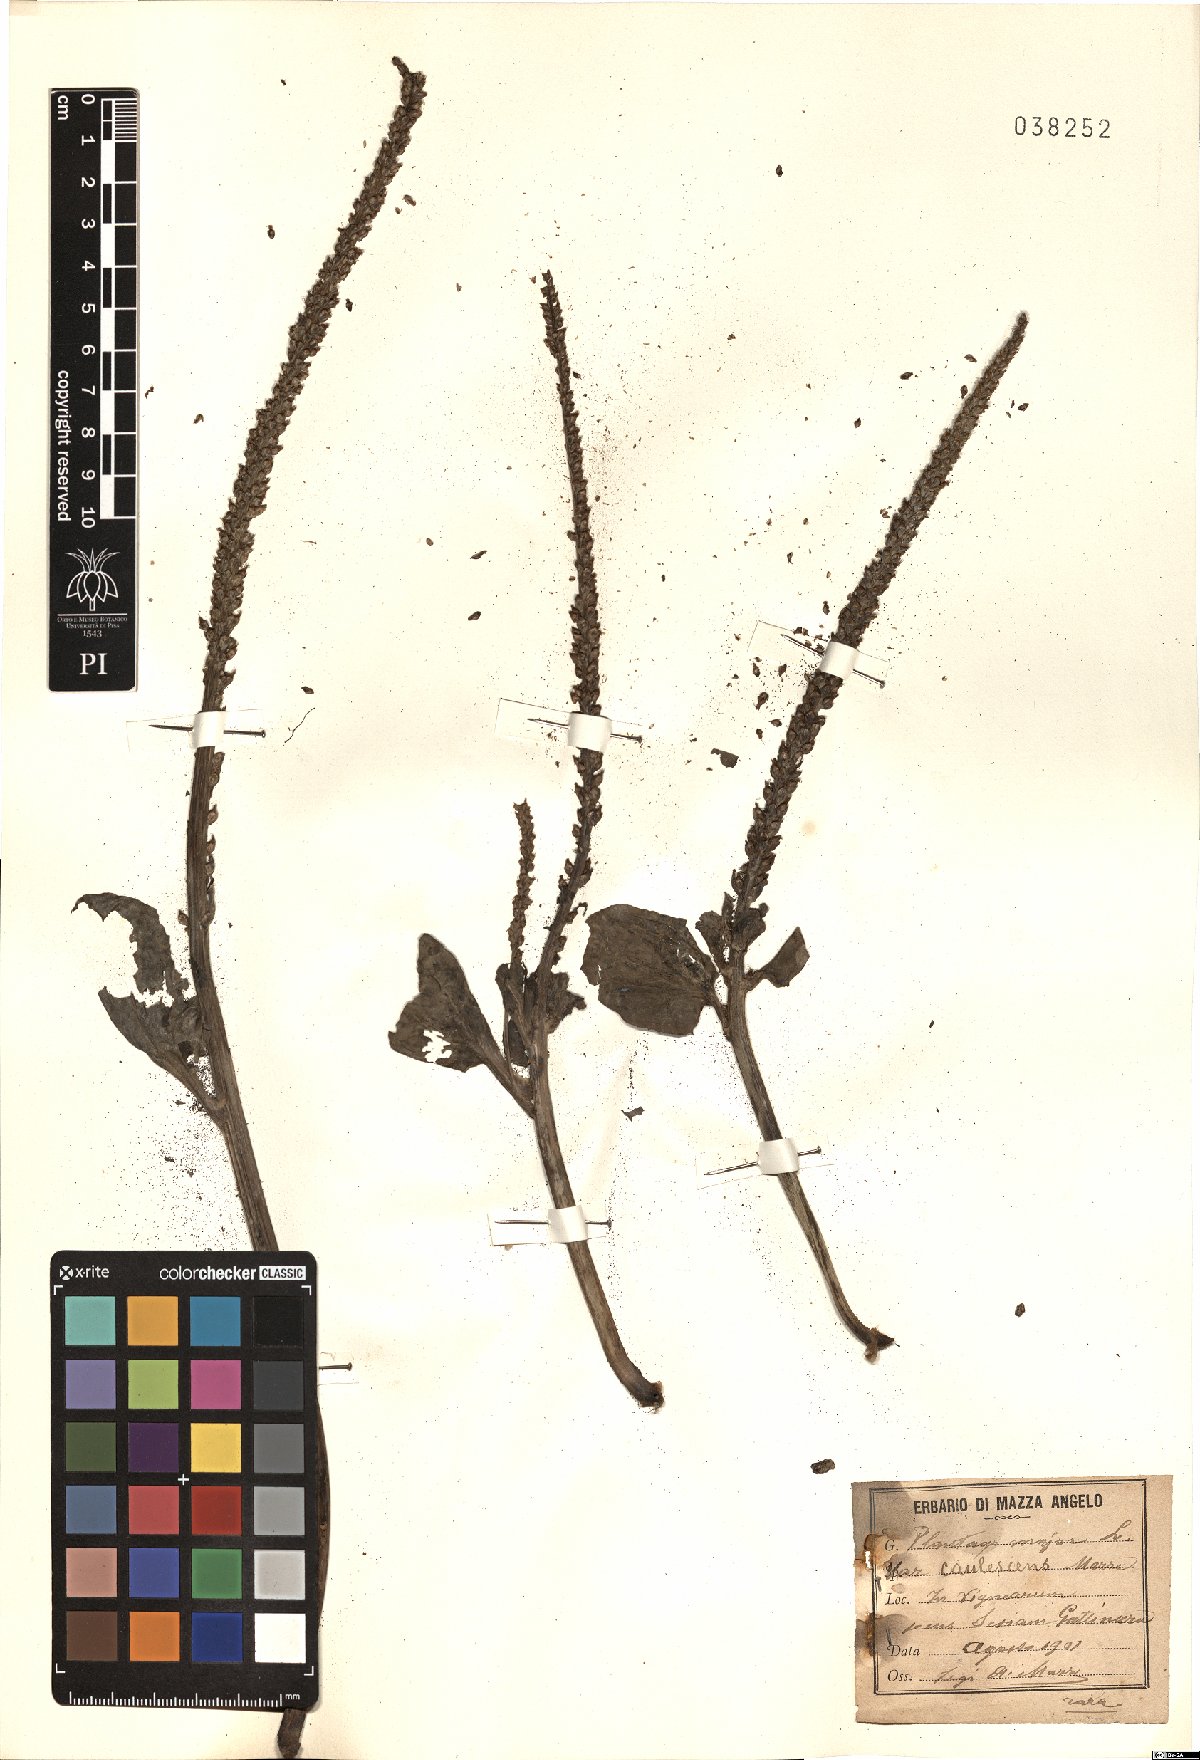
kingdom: Plantae
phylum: Tracheophyta
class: Magnoliopsida
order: Lamiales
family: Plantaginaceae
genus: Plantago
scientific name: Plantago major
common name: Common plantain
